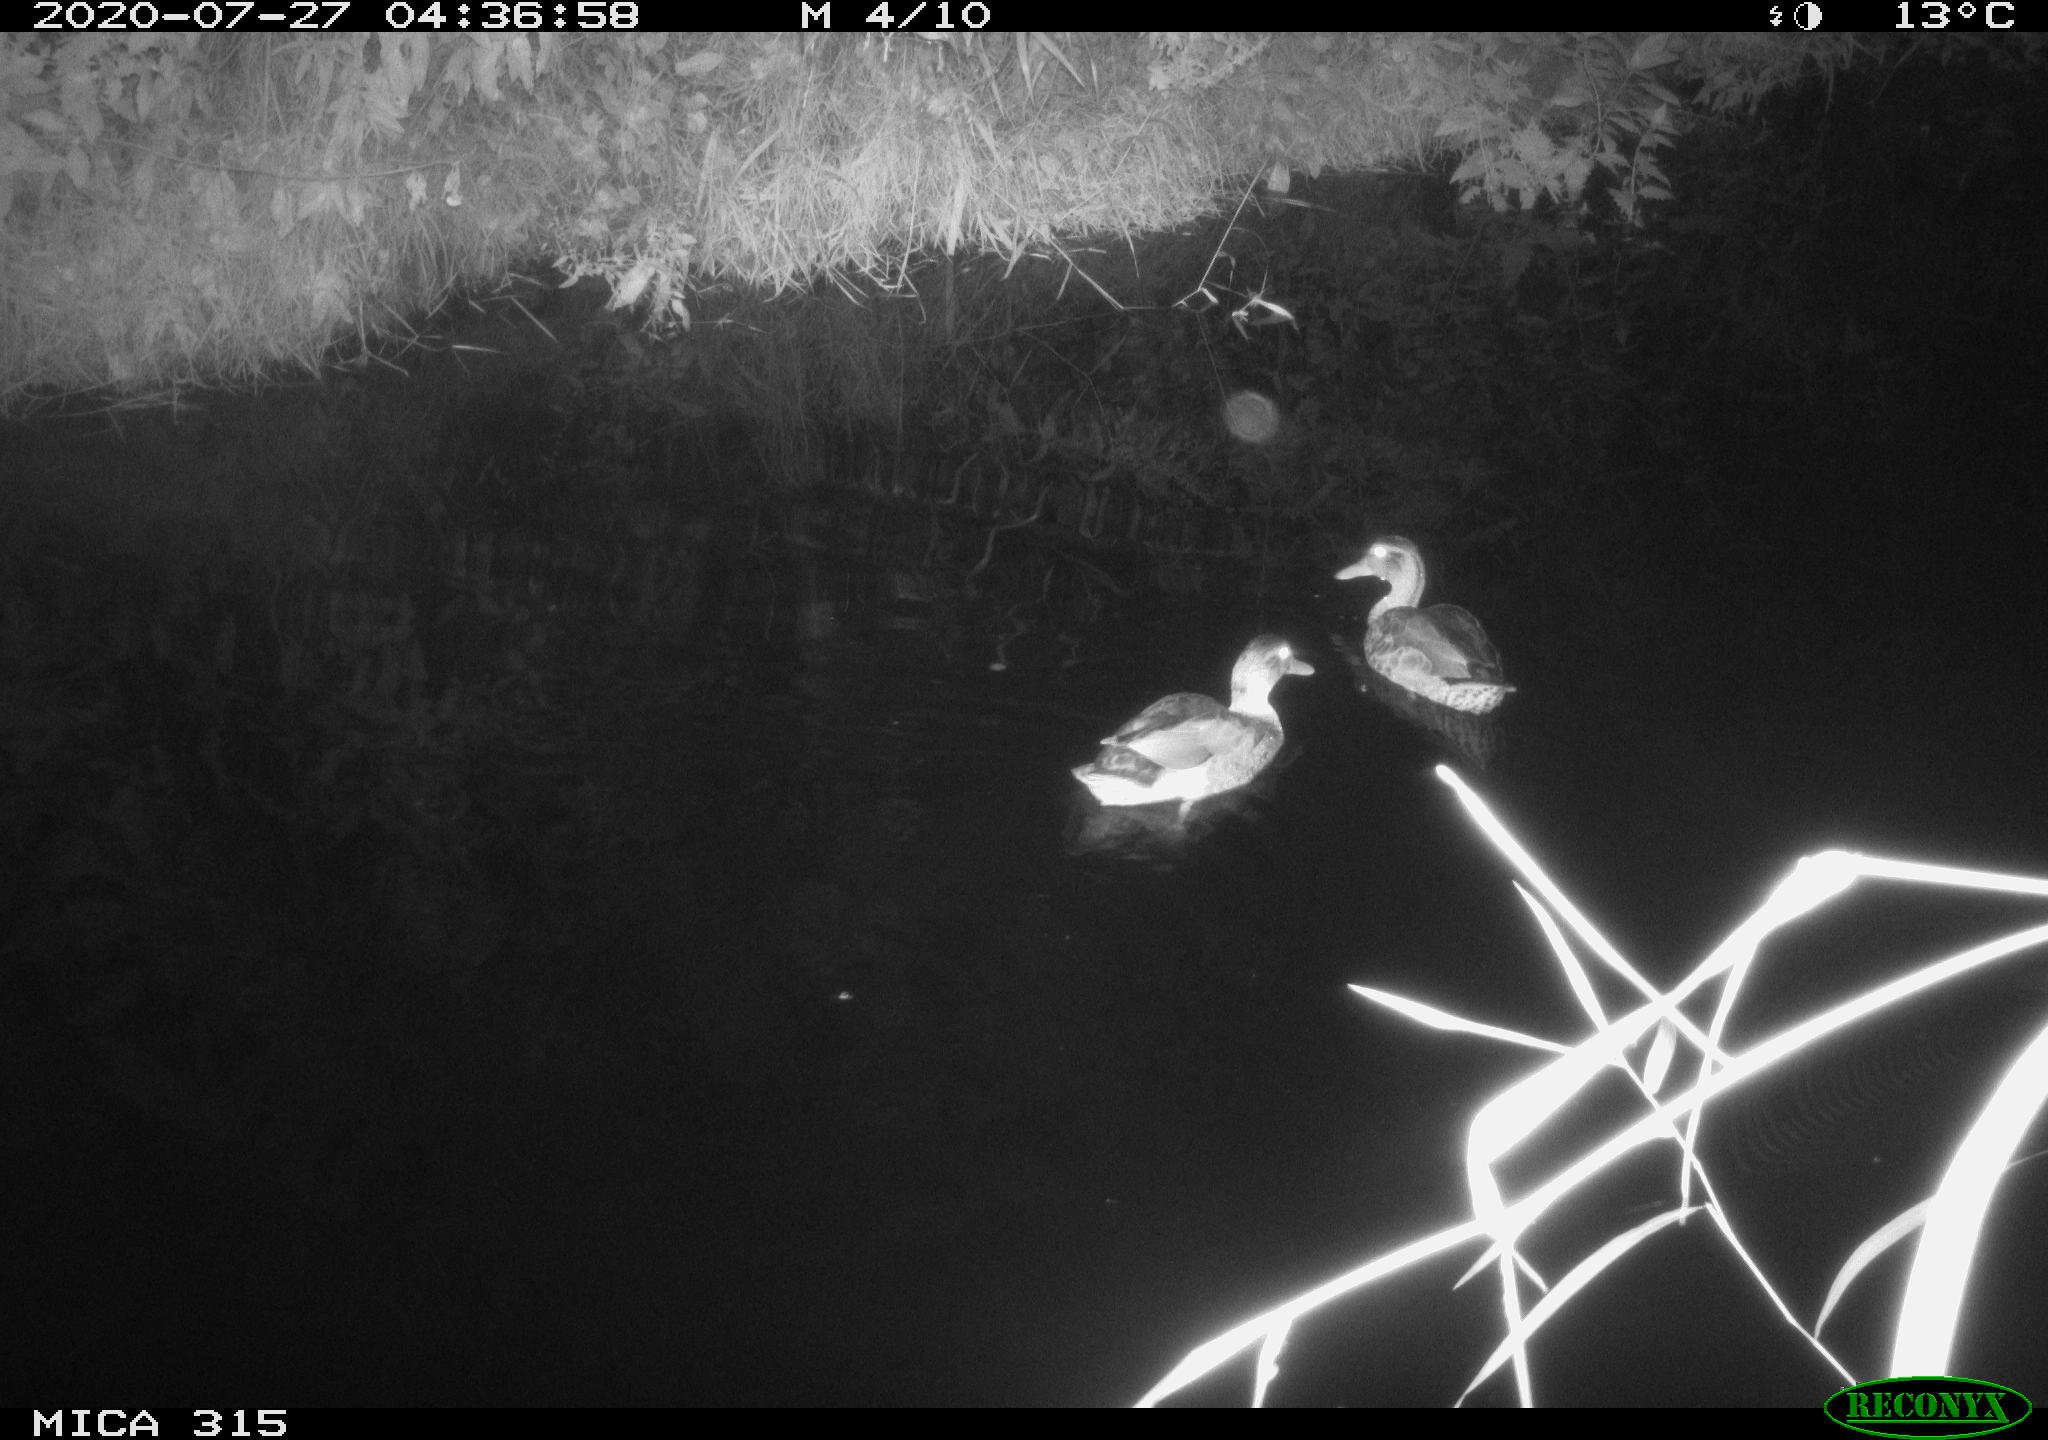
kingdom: Animalia
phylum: Chordata
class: Aves
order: Anseriformes
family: Anatidae
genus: Anas
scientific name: Anas platyrhynchos
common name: Mallard
